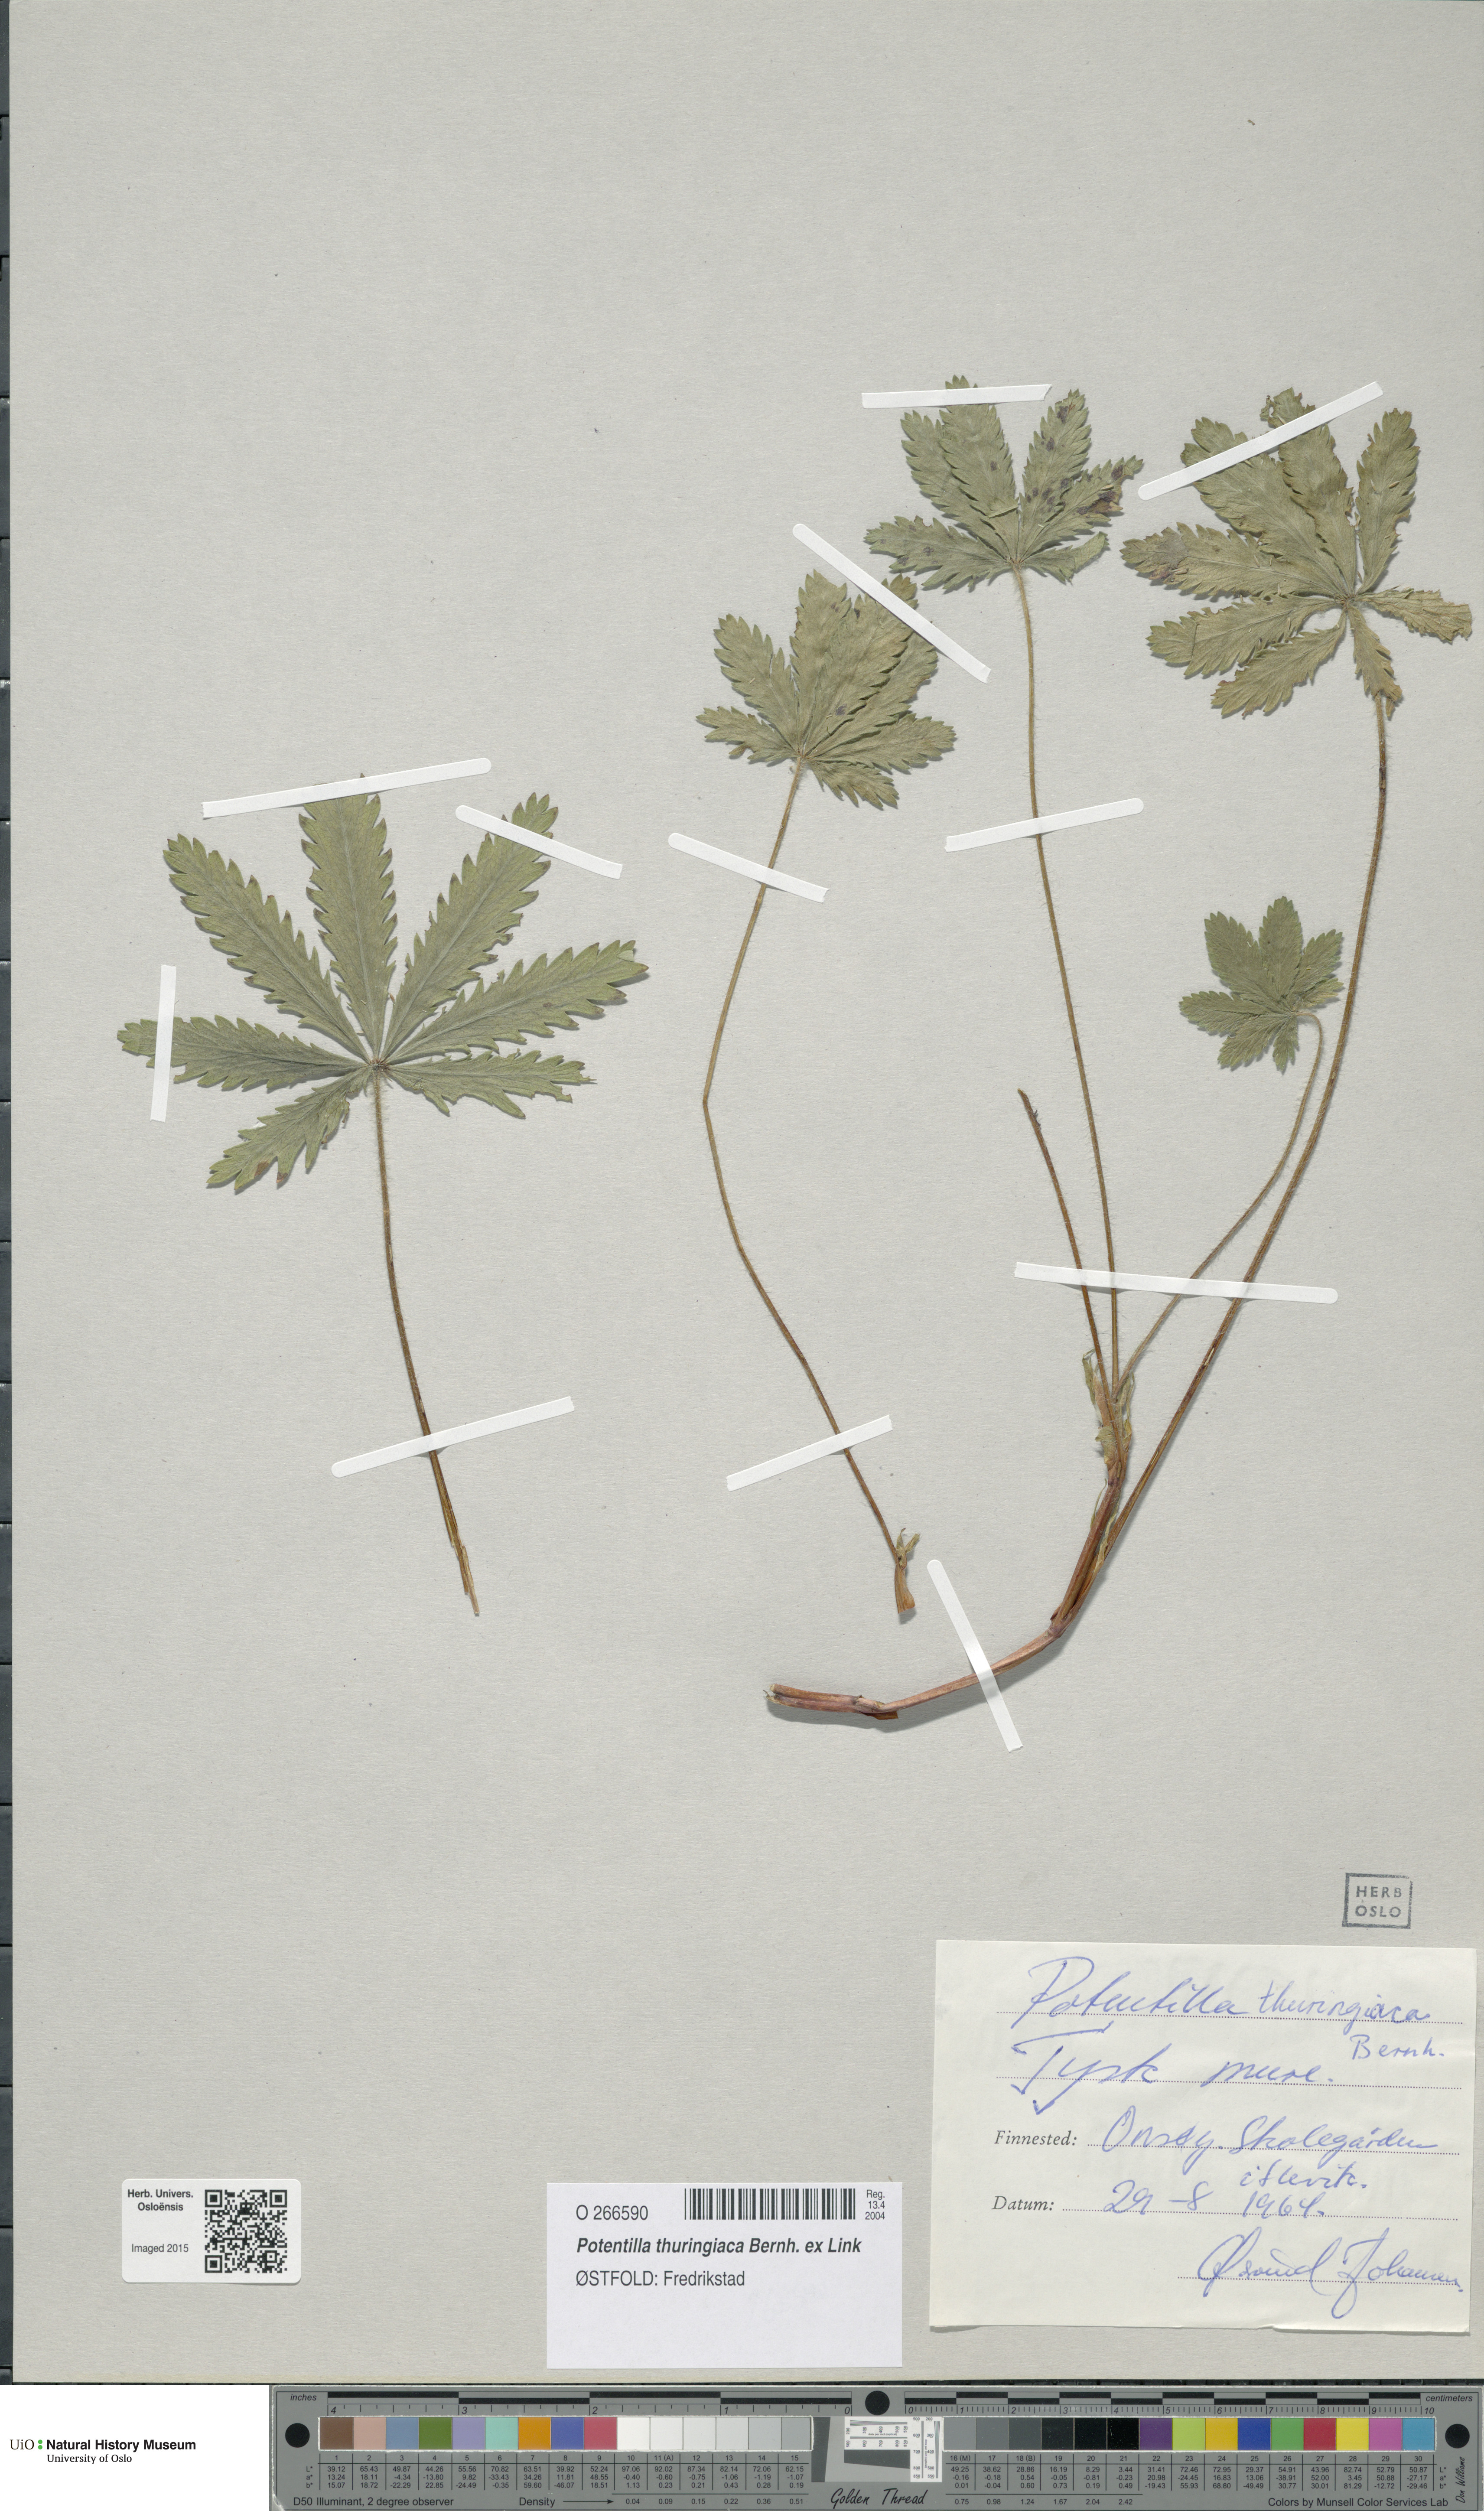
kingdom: Plantae
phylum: Tracheophyta
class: Magnoliopsida
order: Rosales
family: Rosaceae
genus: Potentilla
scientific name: Potentilla thuringiaca
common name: European cinquefoil
